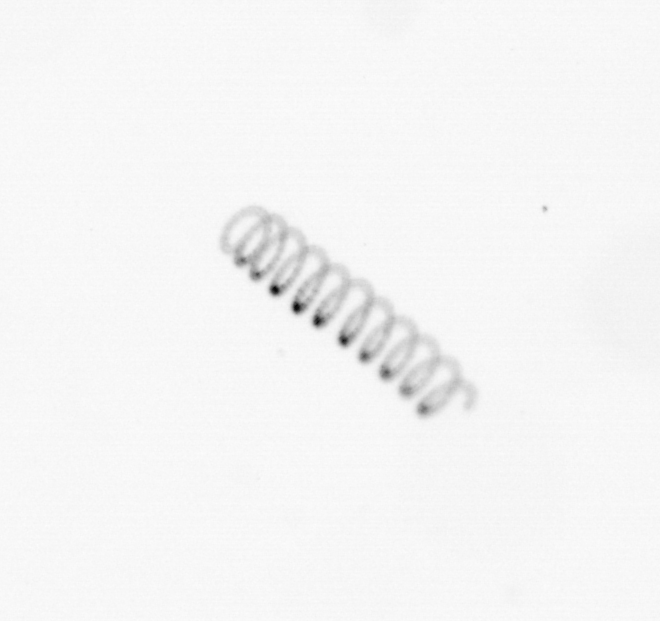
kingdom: Chromista
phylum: Ochrophyta
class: Bacillariophyceae
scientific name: Bacillariophyceae
